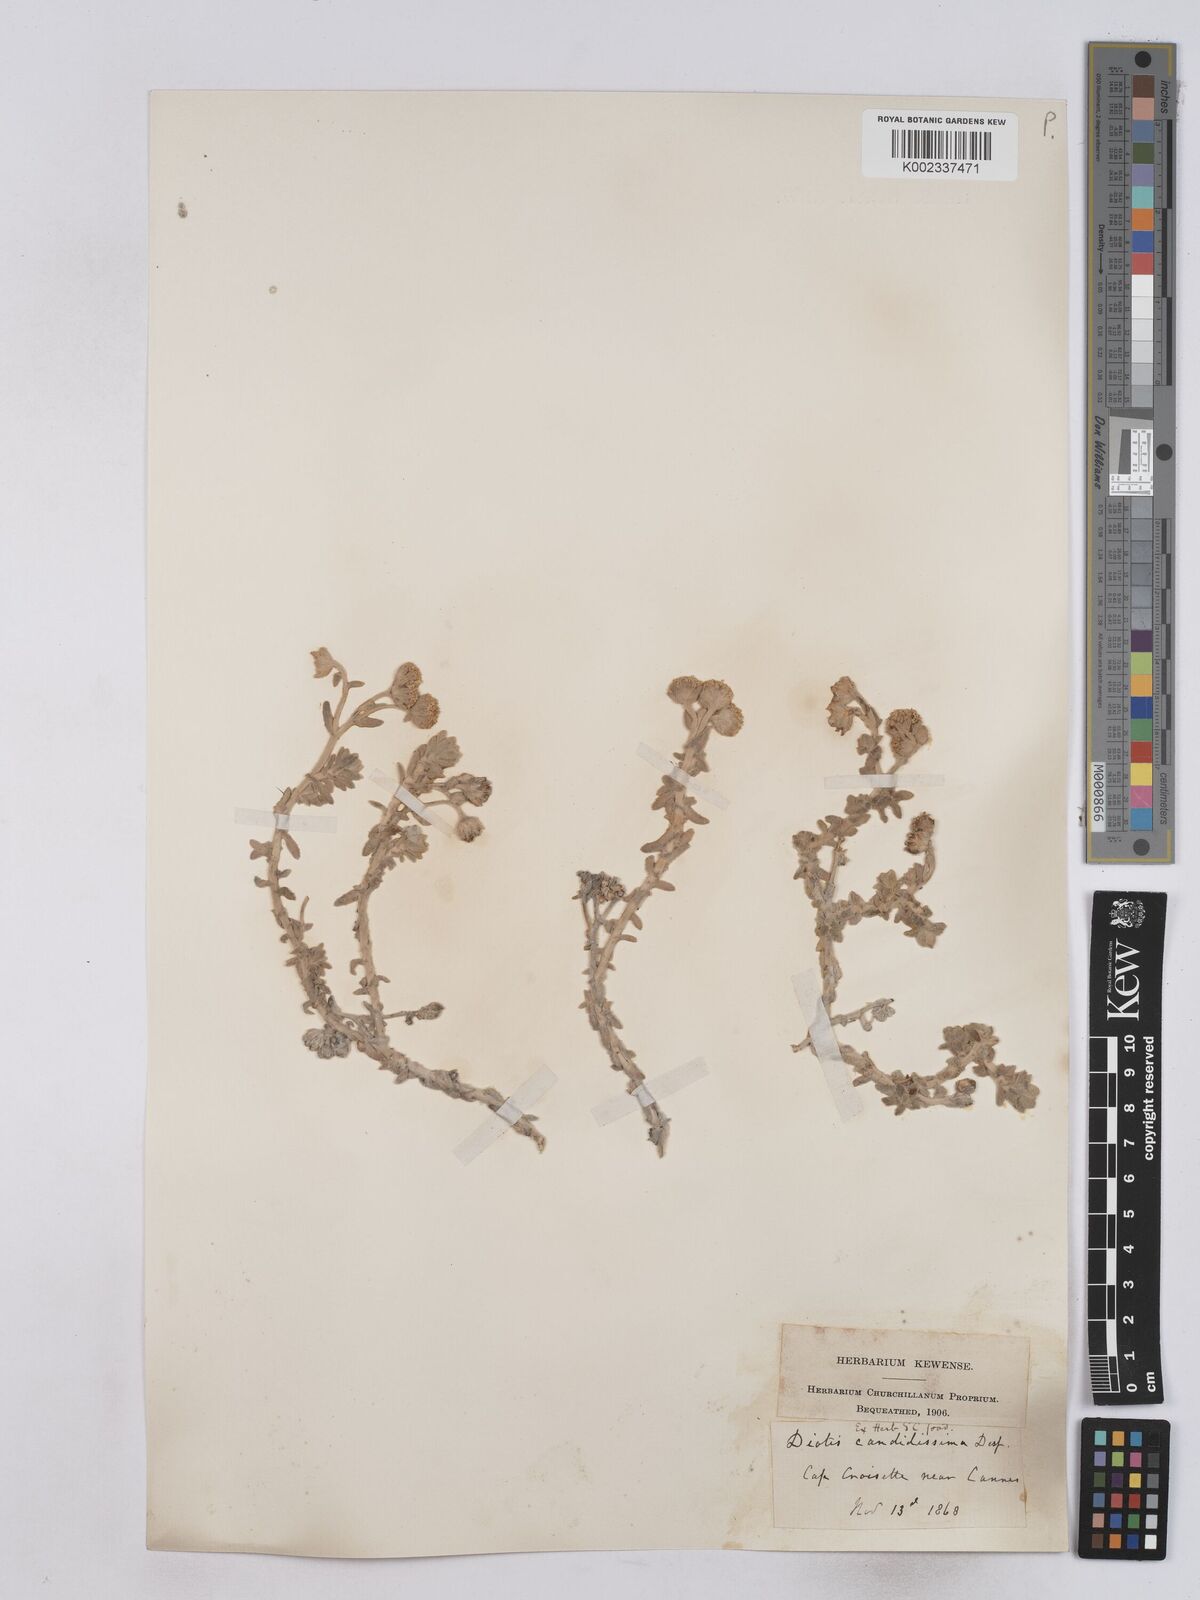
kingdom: Plantae
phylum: Tracheophyta
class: Magnoliopsida
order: Asterales
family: Asteraceae
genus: Achillea
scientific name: Achillea maritima
